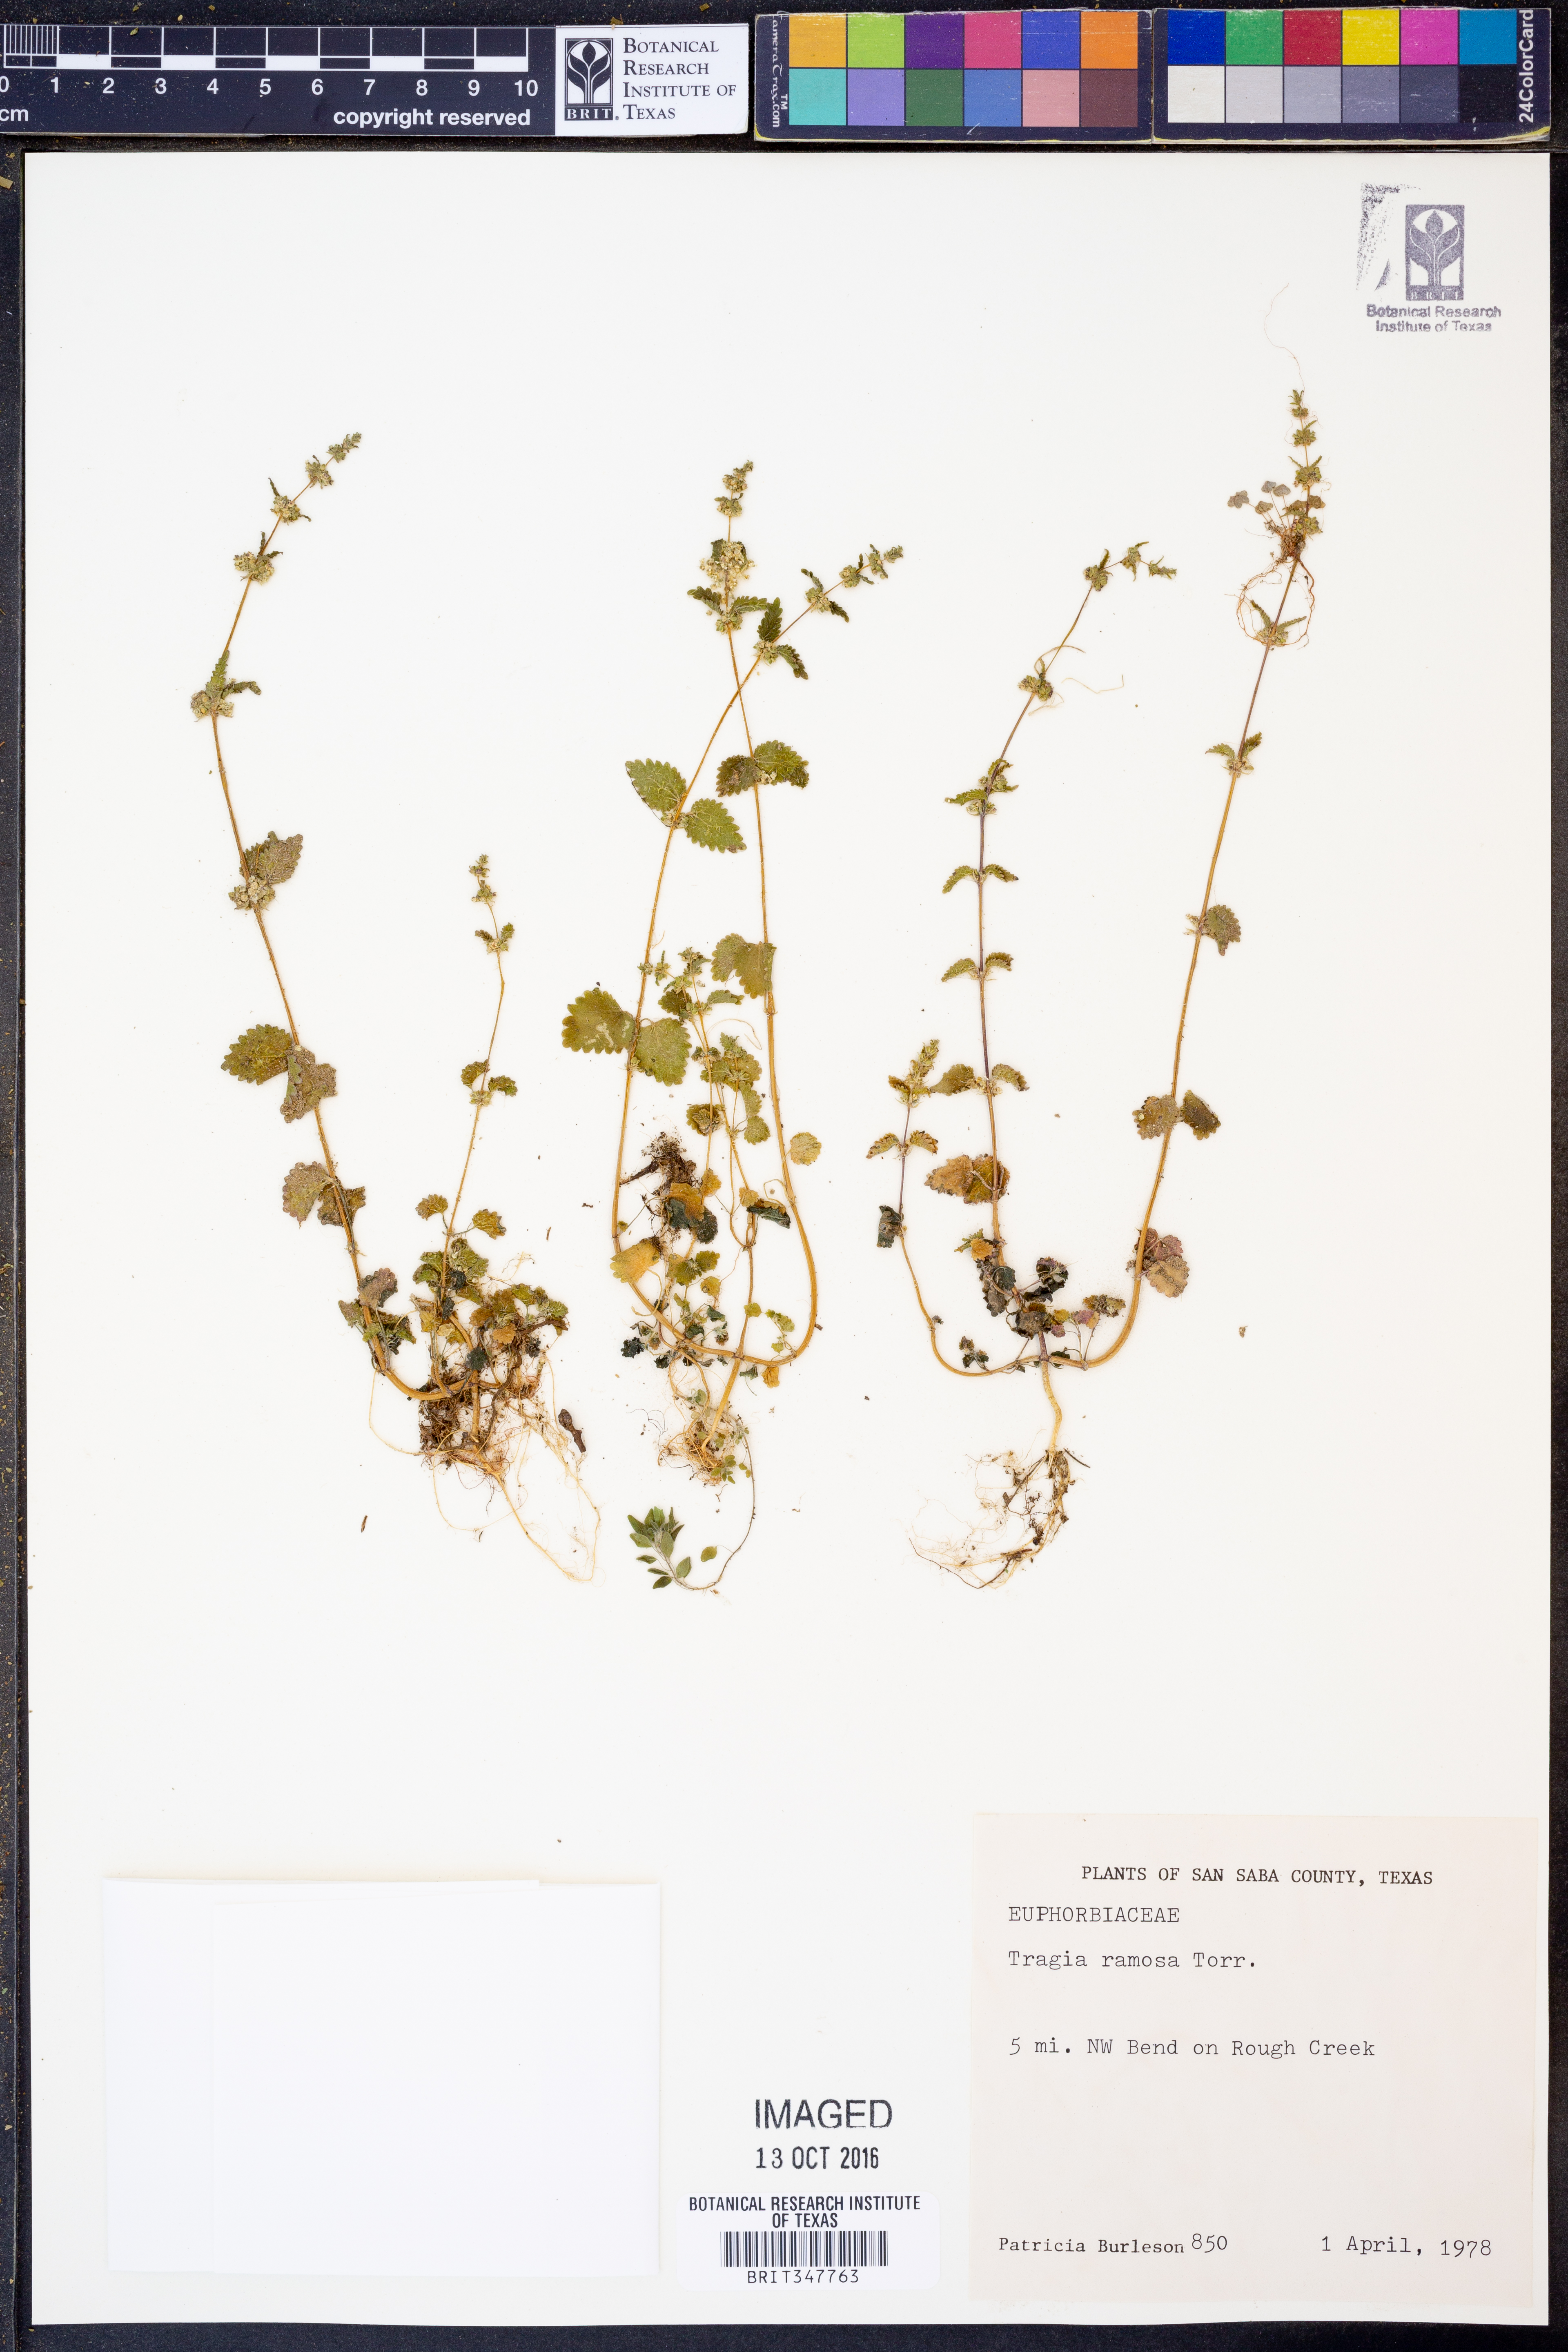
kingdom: Plantae
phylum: Tracheophyta
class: Magnoliopsida
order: Malpighiales
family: Euphorbiaceae
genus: Tragia
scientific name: Tragia ramosa
